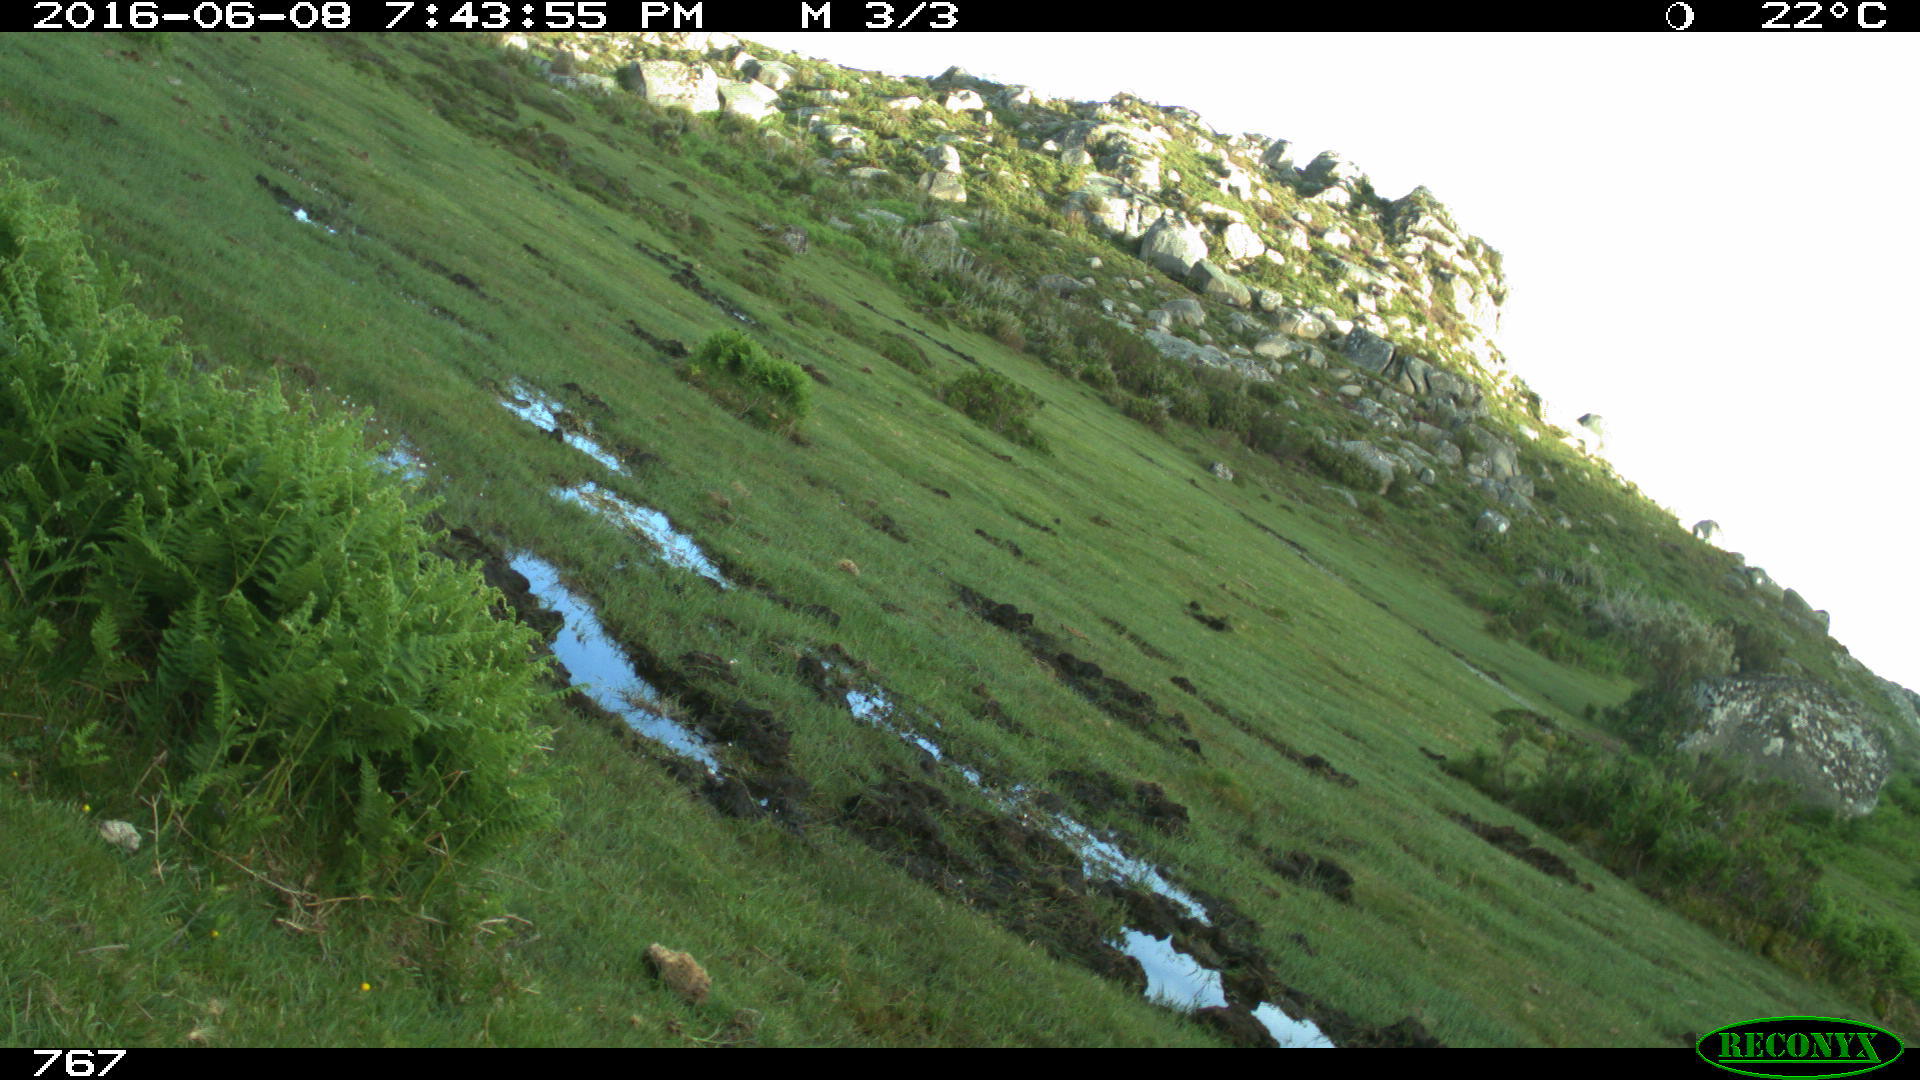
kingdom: Animalia
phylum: Chordata
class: Mammalia
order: Perissodactyla
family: Equidae
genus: Equus
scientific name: Equus caballus
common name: Horse
